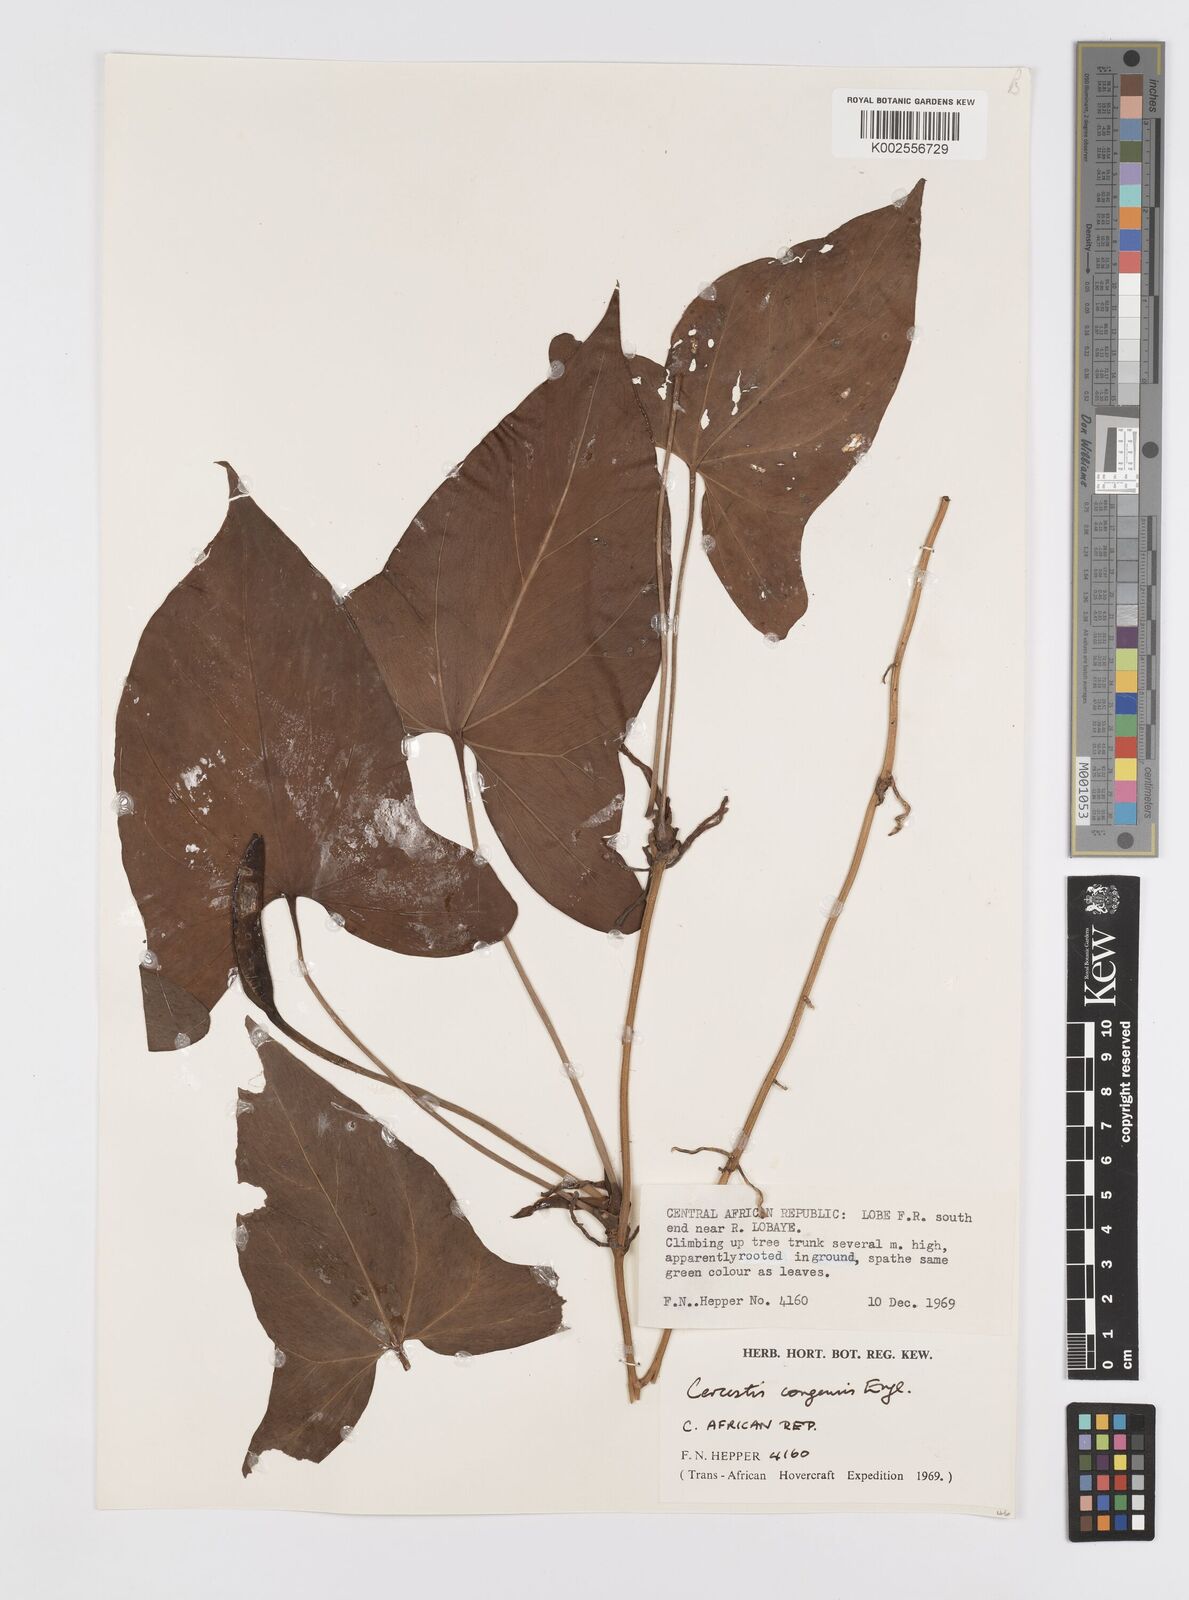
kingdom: Plantae
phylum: Tracheophyta
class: Liliopsida
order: Alismatales
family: Araceae
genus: Cercestis
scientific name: Cercestis congoensis
